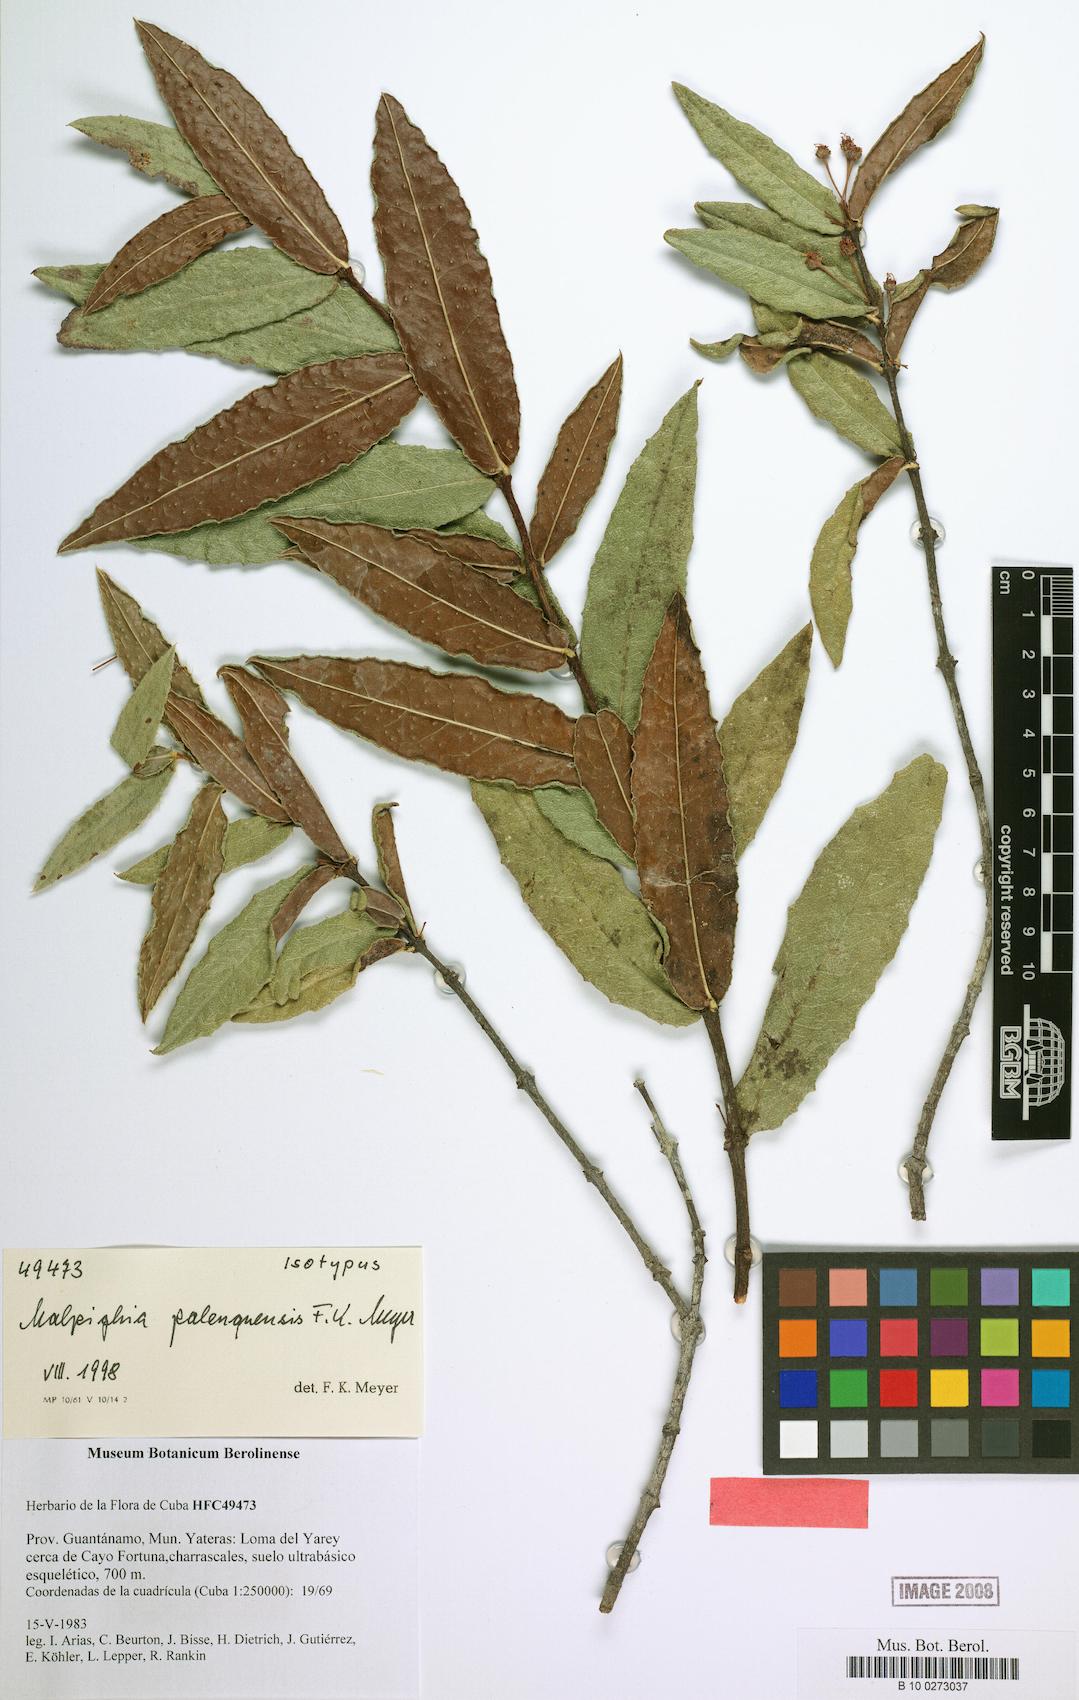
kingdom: Plantae
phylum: Tracheophyta
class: Magnoliopsida
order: Malpighiales
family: Malpighiaceae
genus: Malpighia
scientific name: Malpighia cubensis
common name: Lady hair
